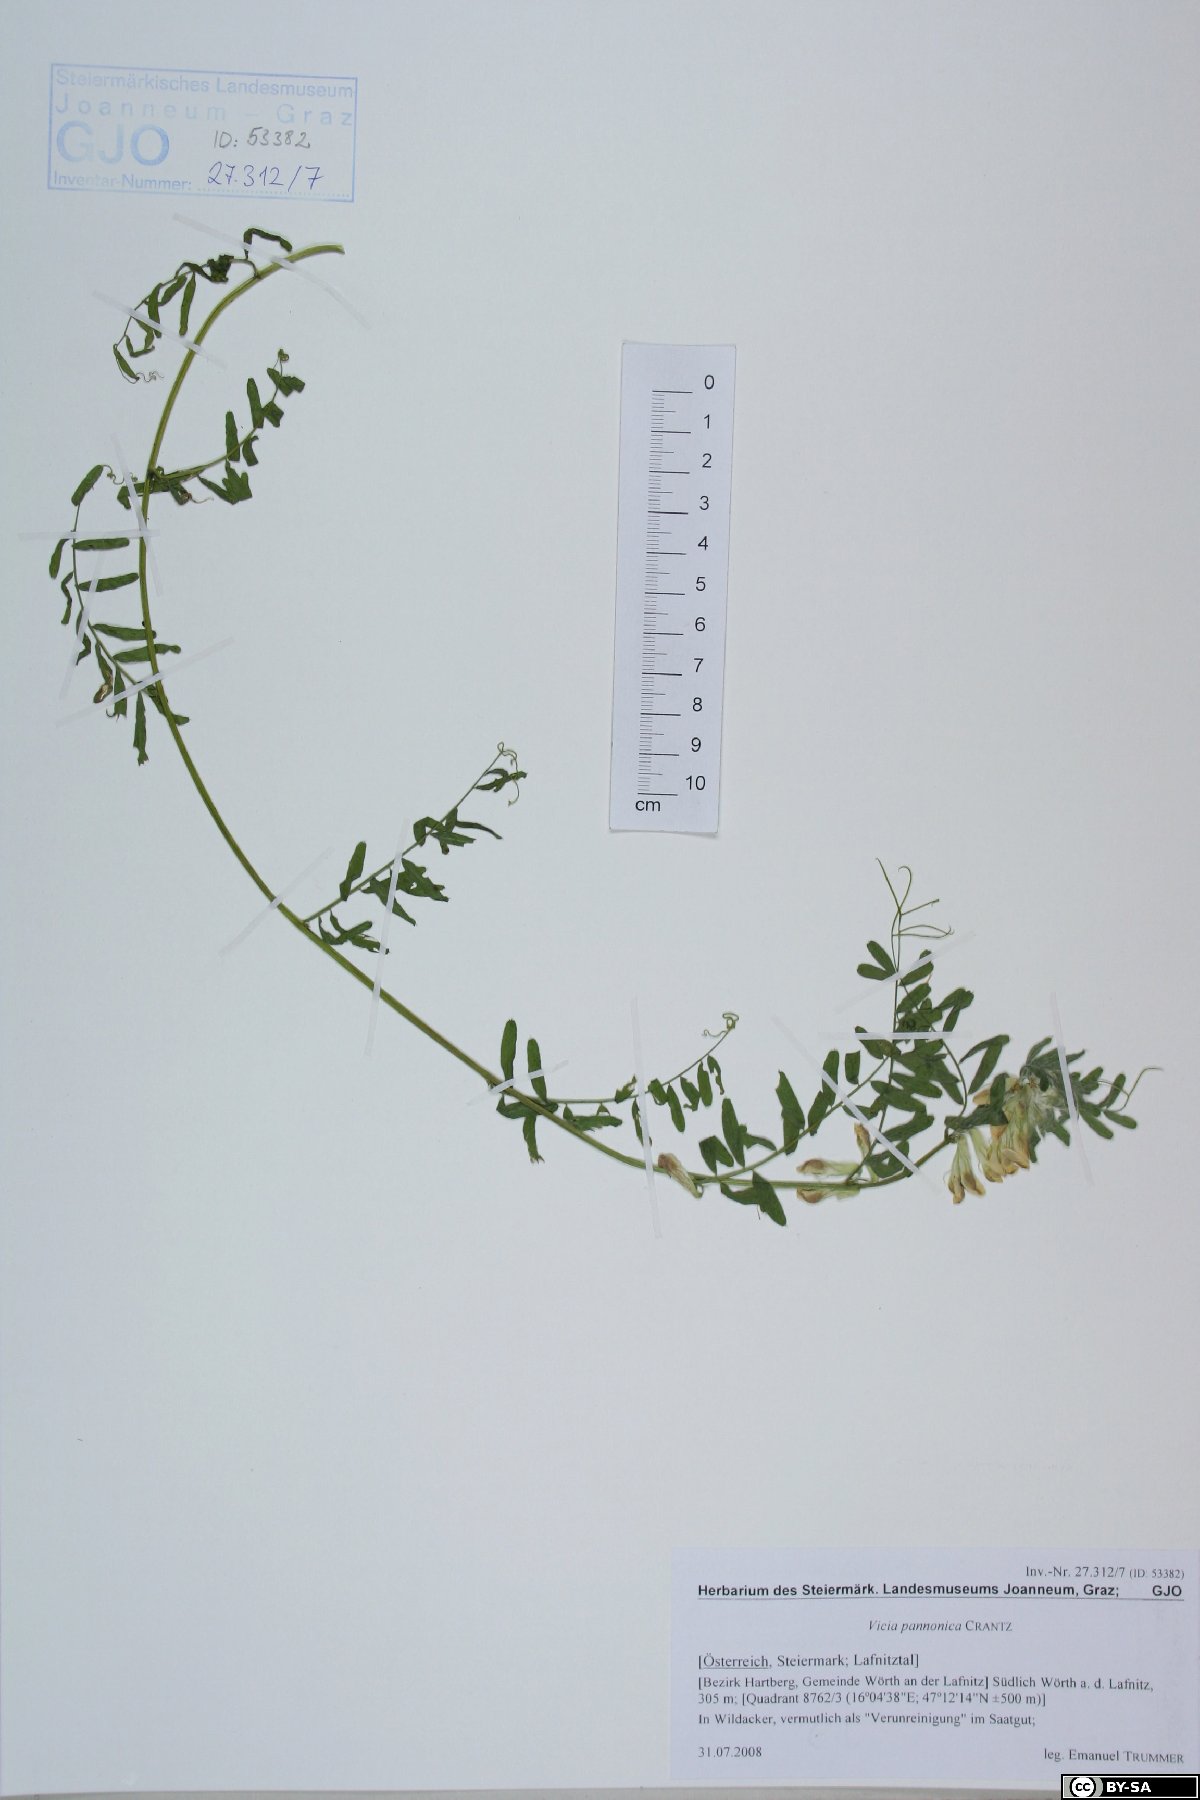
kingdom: Plantae
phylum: Tracheophyta
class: Magnoliopsida
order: Fabales
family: Fabaceae
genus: Vicia
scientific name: Vicia pannonica
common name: Hungarian vetch
